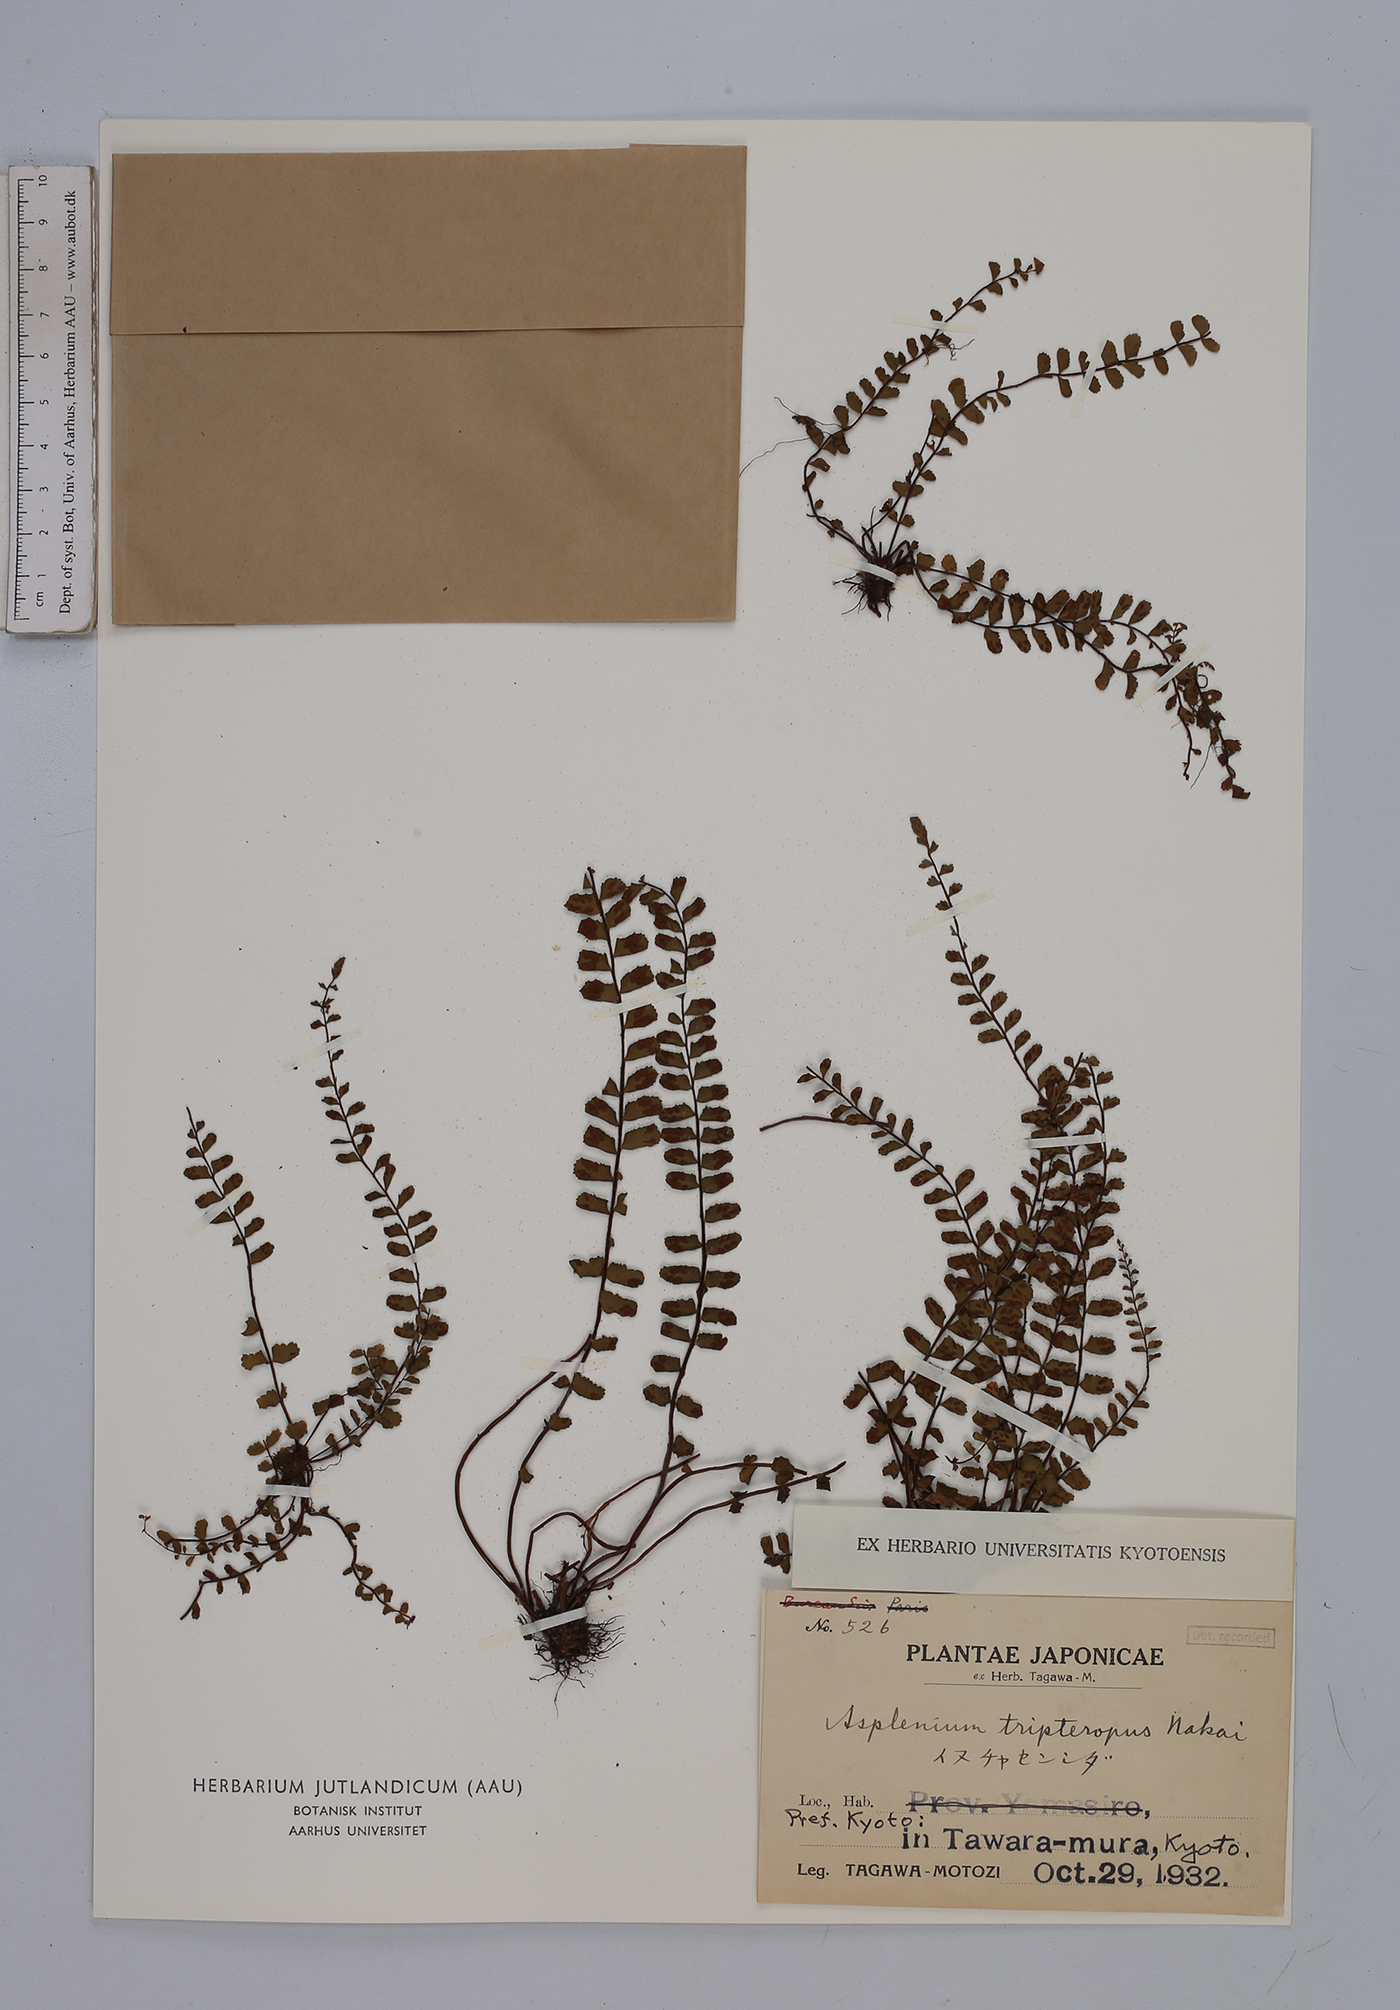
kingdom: Plantae
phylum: Tracheophyta
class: Polypodiopsida
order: Polypodiales
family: Aspleniaceae
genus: Asplenium
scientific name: Asplenium tripteropus
